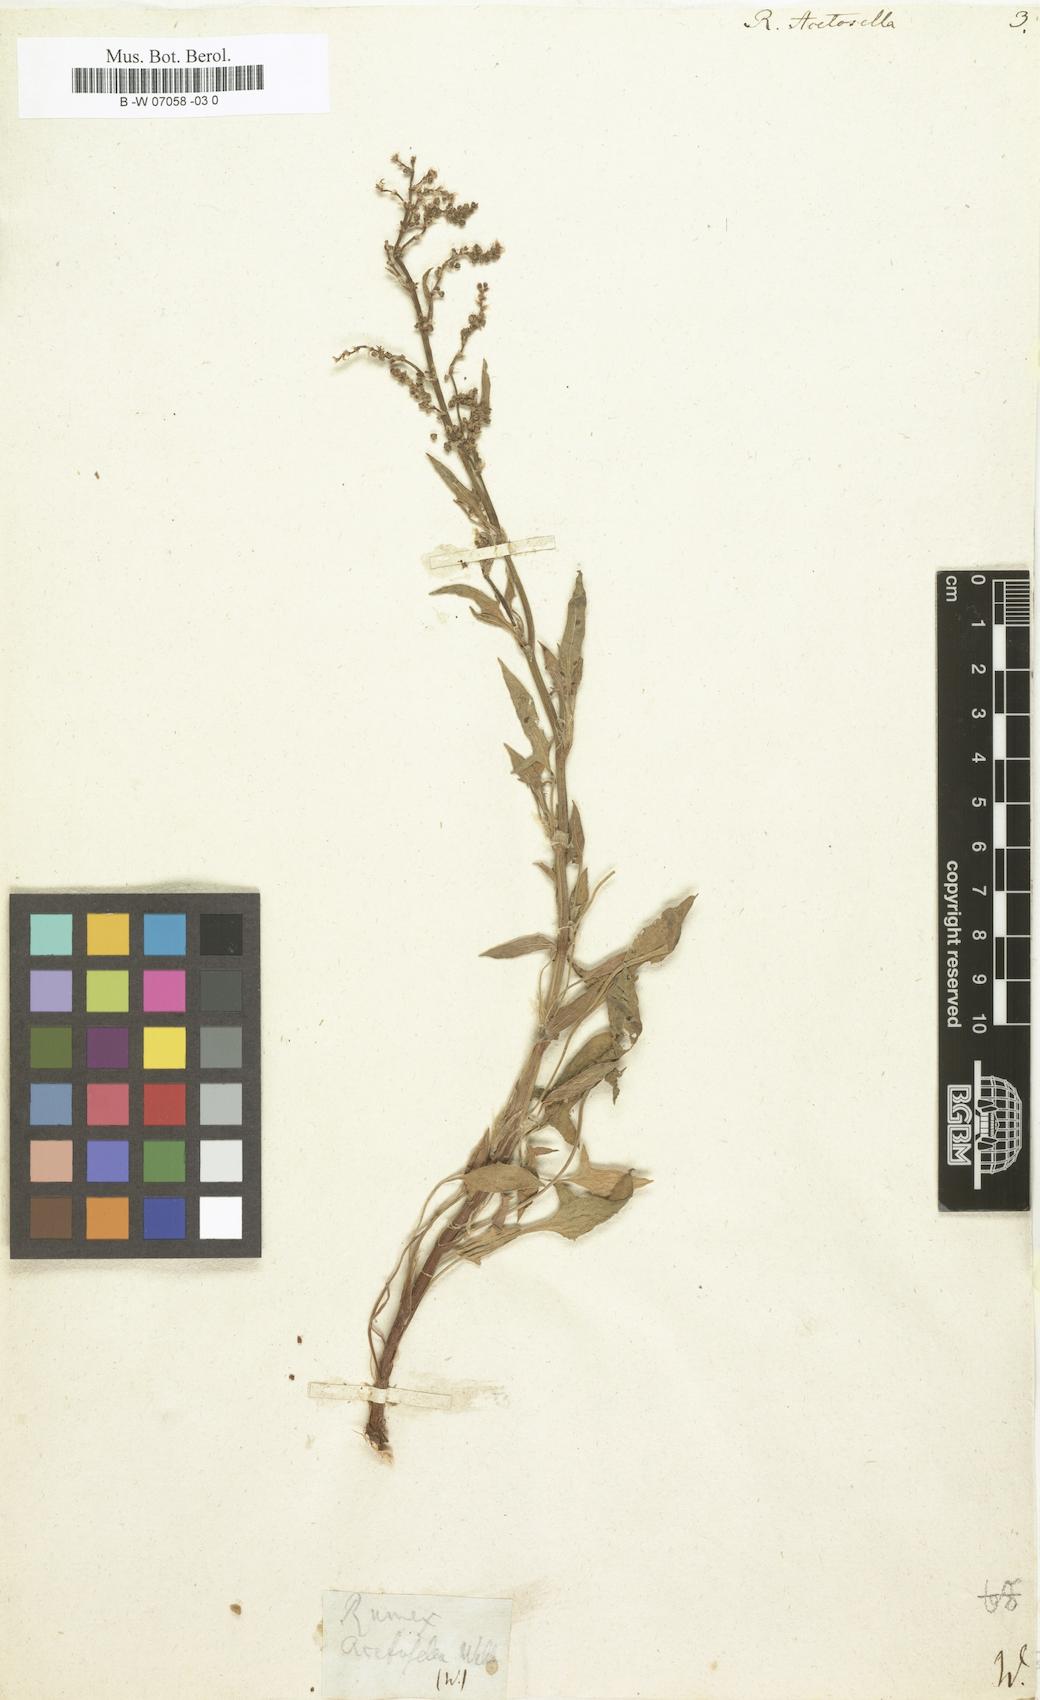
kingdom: Plantae
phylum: Tracheophyta
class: Magnoliopsida
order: Caryophyllales
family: Polygonaceae
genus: Rumex
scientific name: Rumex acetosella
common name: Common sheep sorrel
